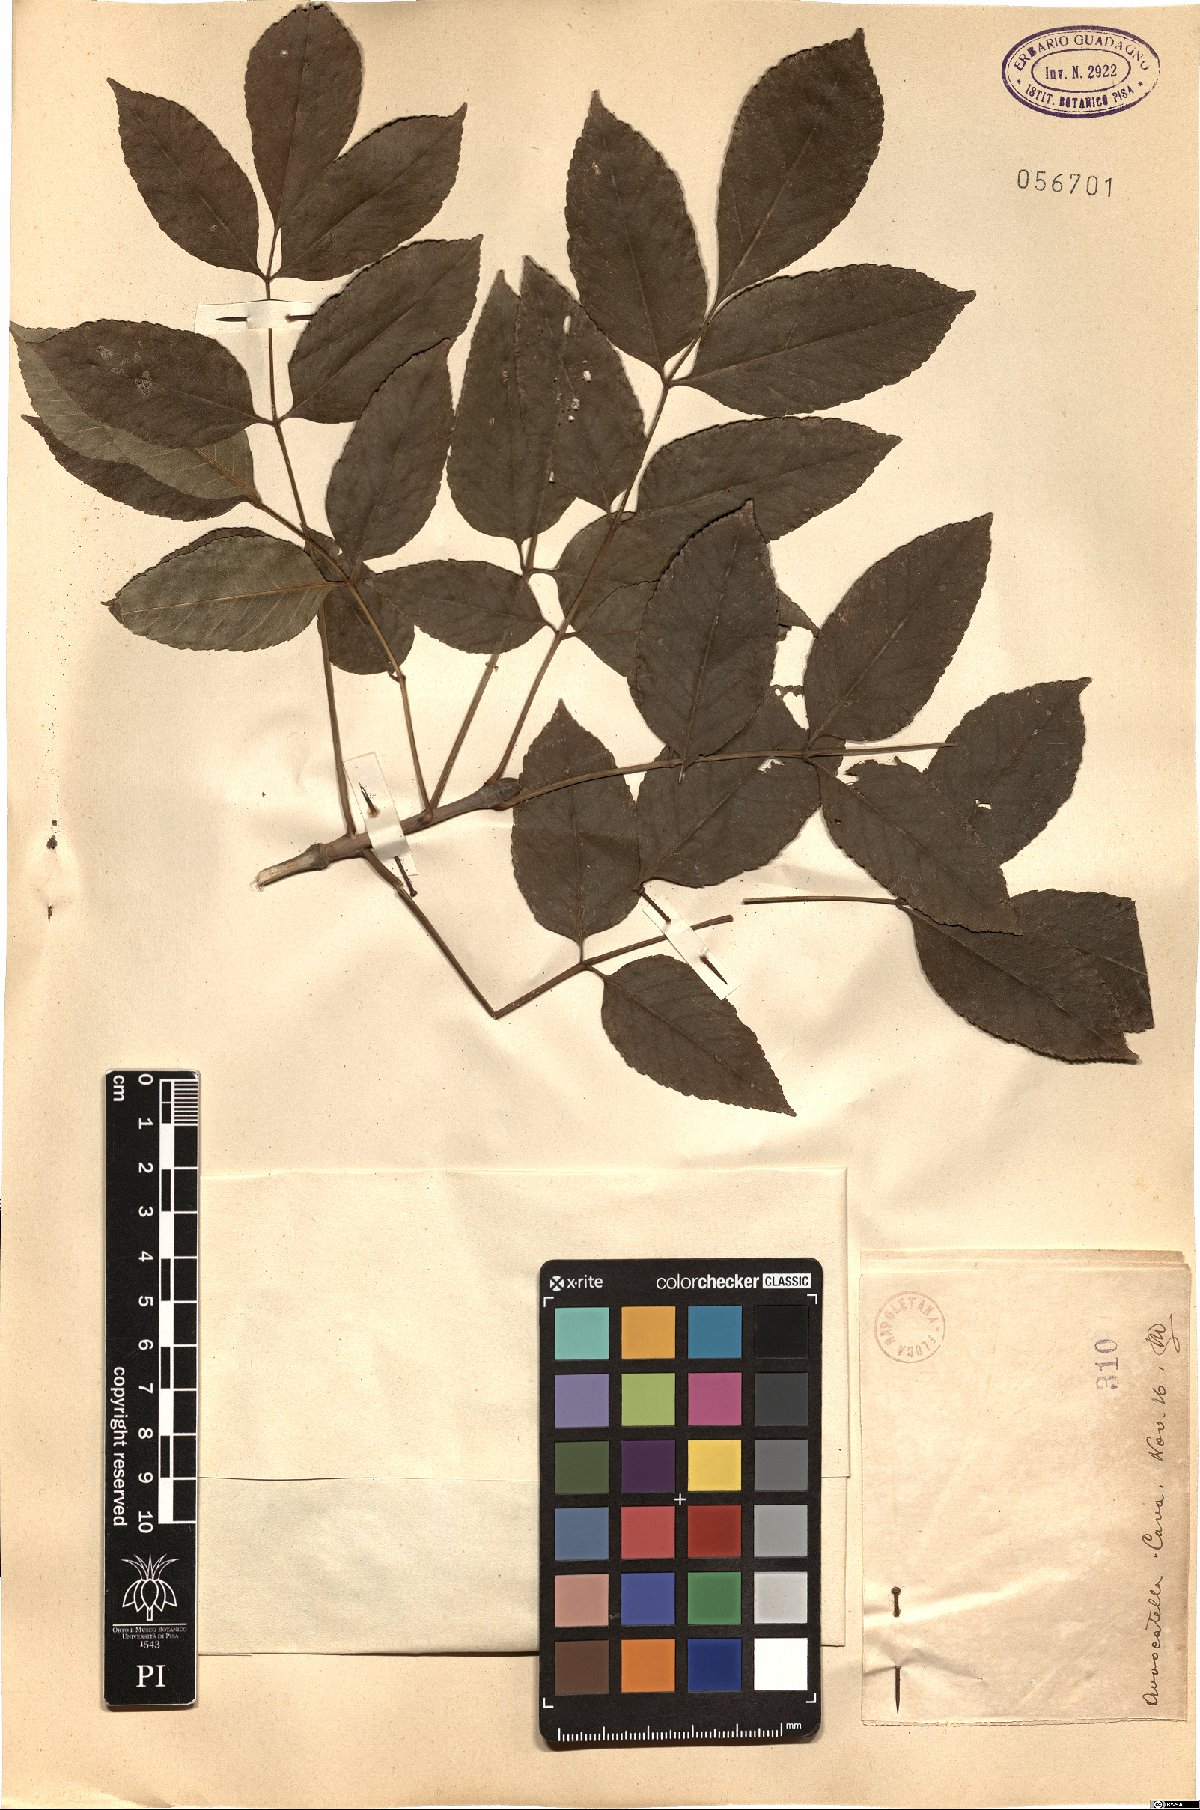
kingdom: Plantae
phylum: Tracheophyta
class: Magnoliopsida
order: Lamiales
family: Oleaceae
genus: Fraxinus
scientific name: Fraxinus
